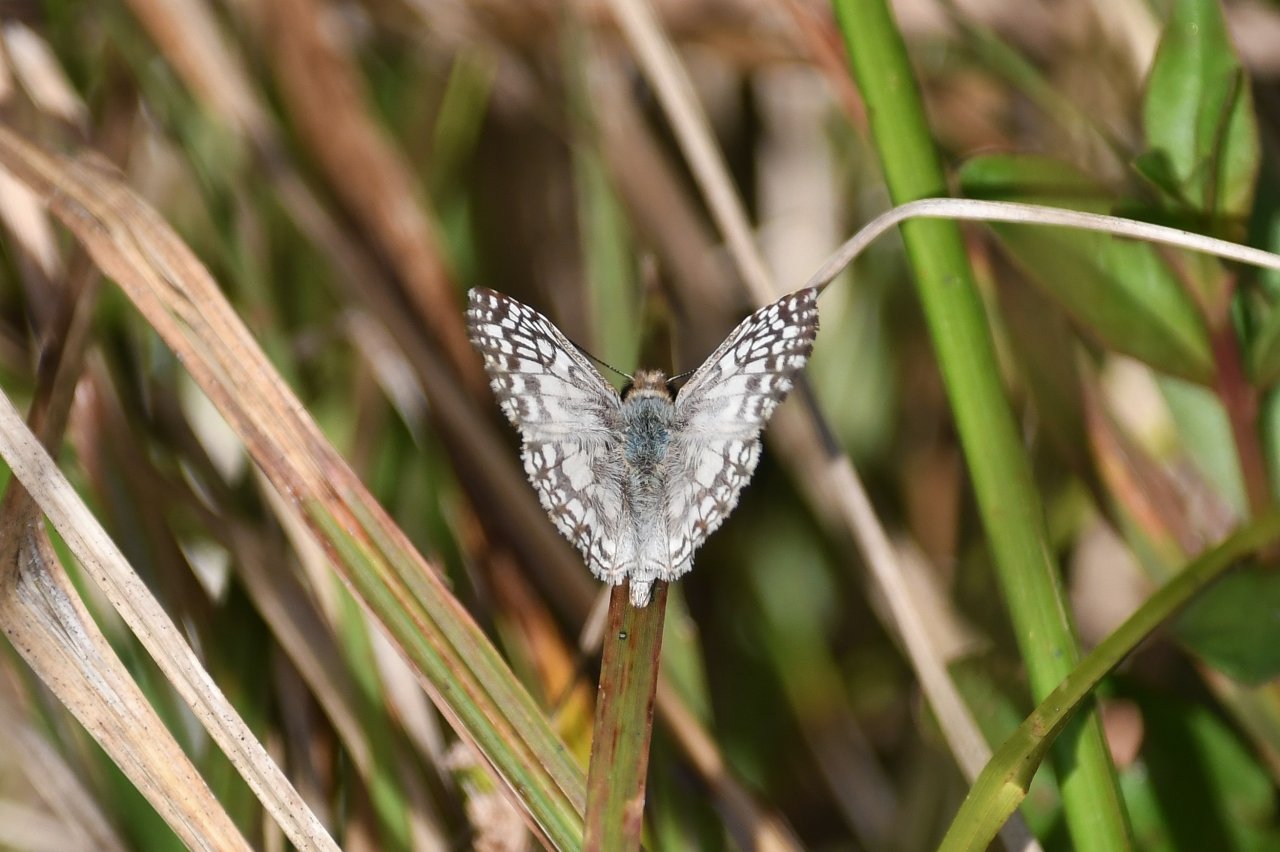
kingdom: Animalia
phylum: Arthropoda
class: Insecta
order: Lepidoptera
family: Hesperiidae
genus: Pyrgus
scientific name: Pyrgus oileus
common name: Tropical Checkered-Skipper
